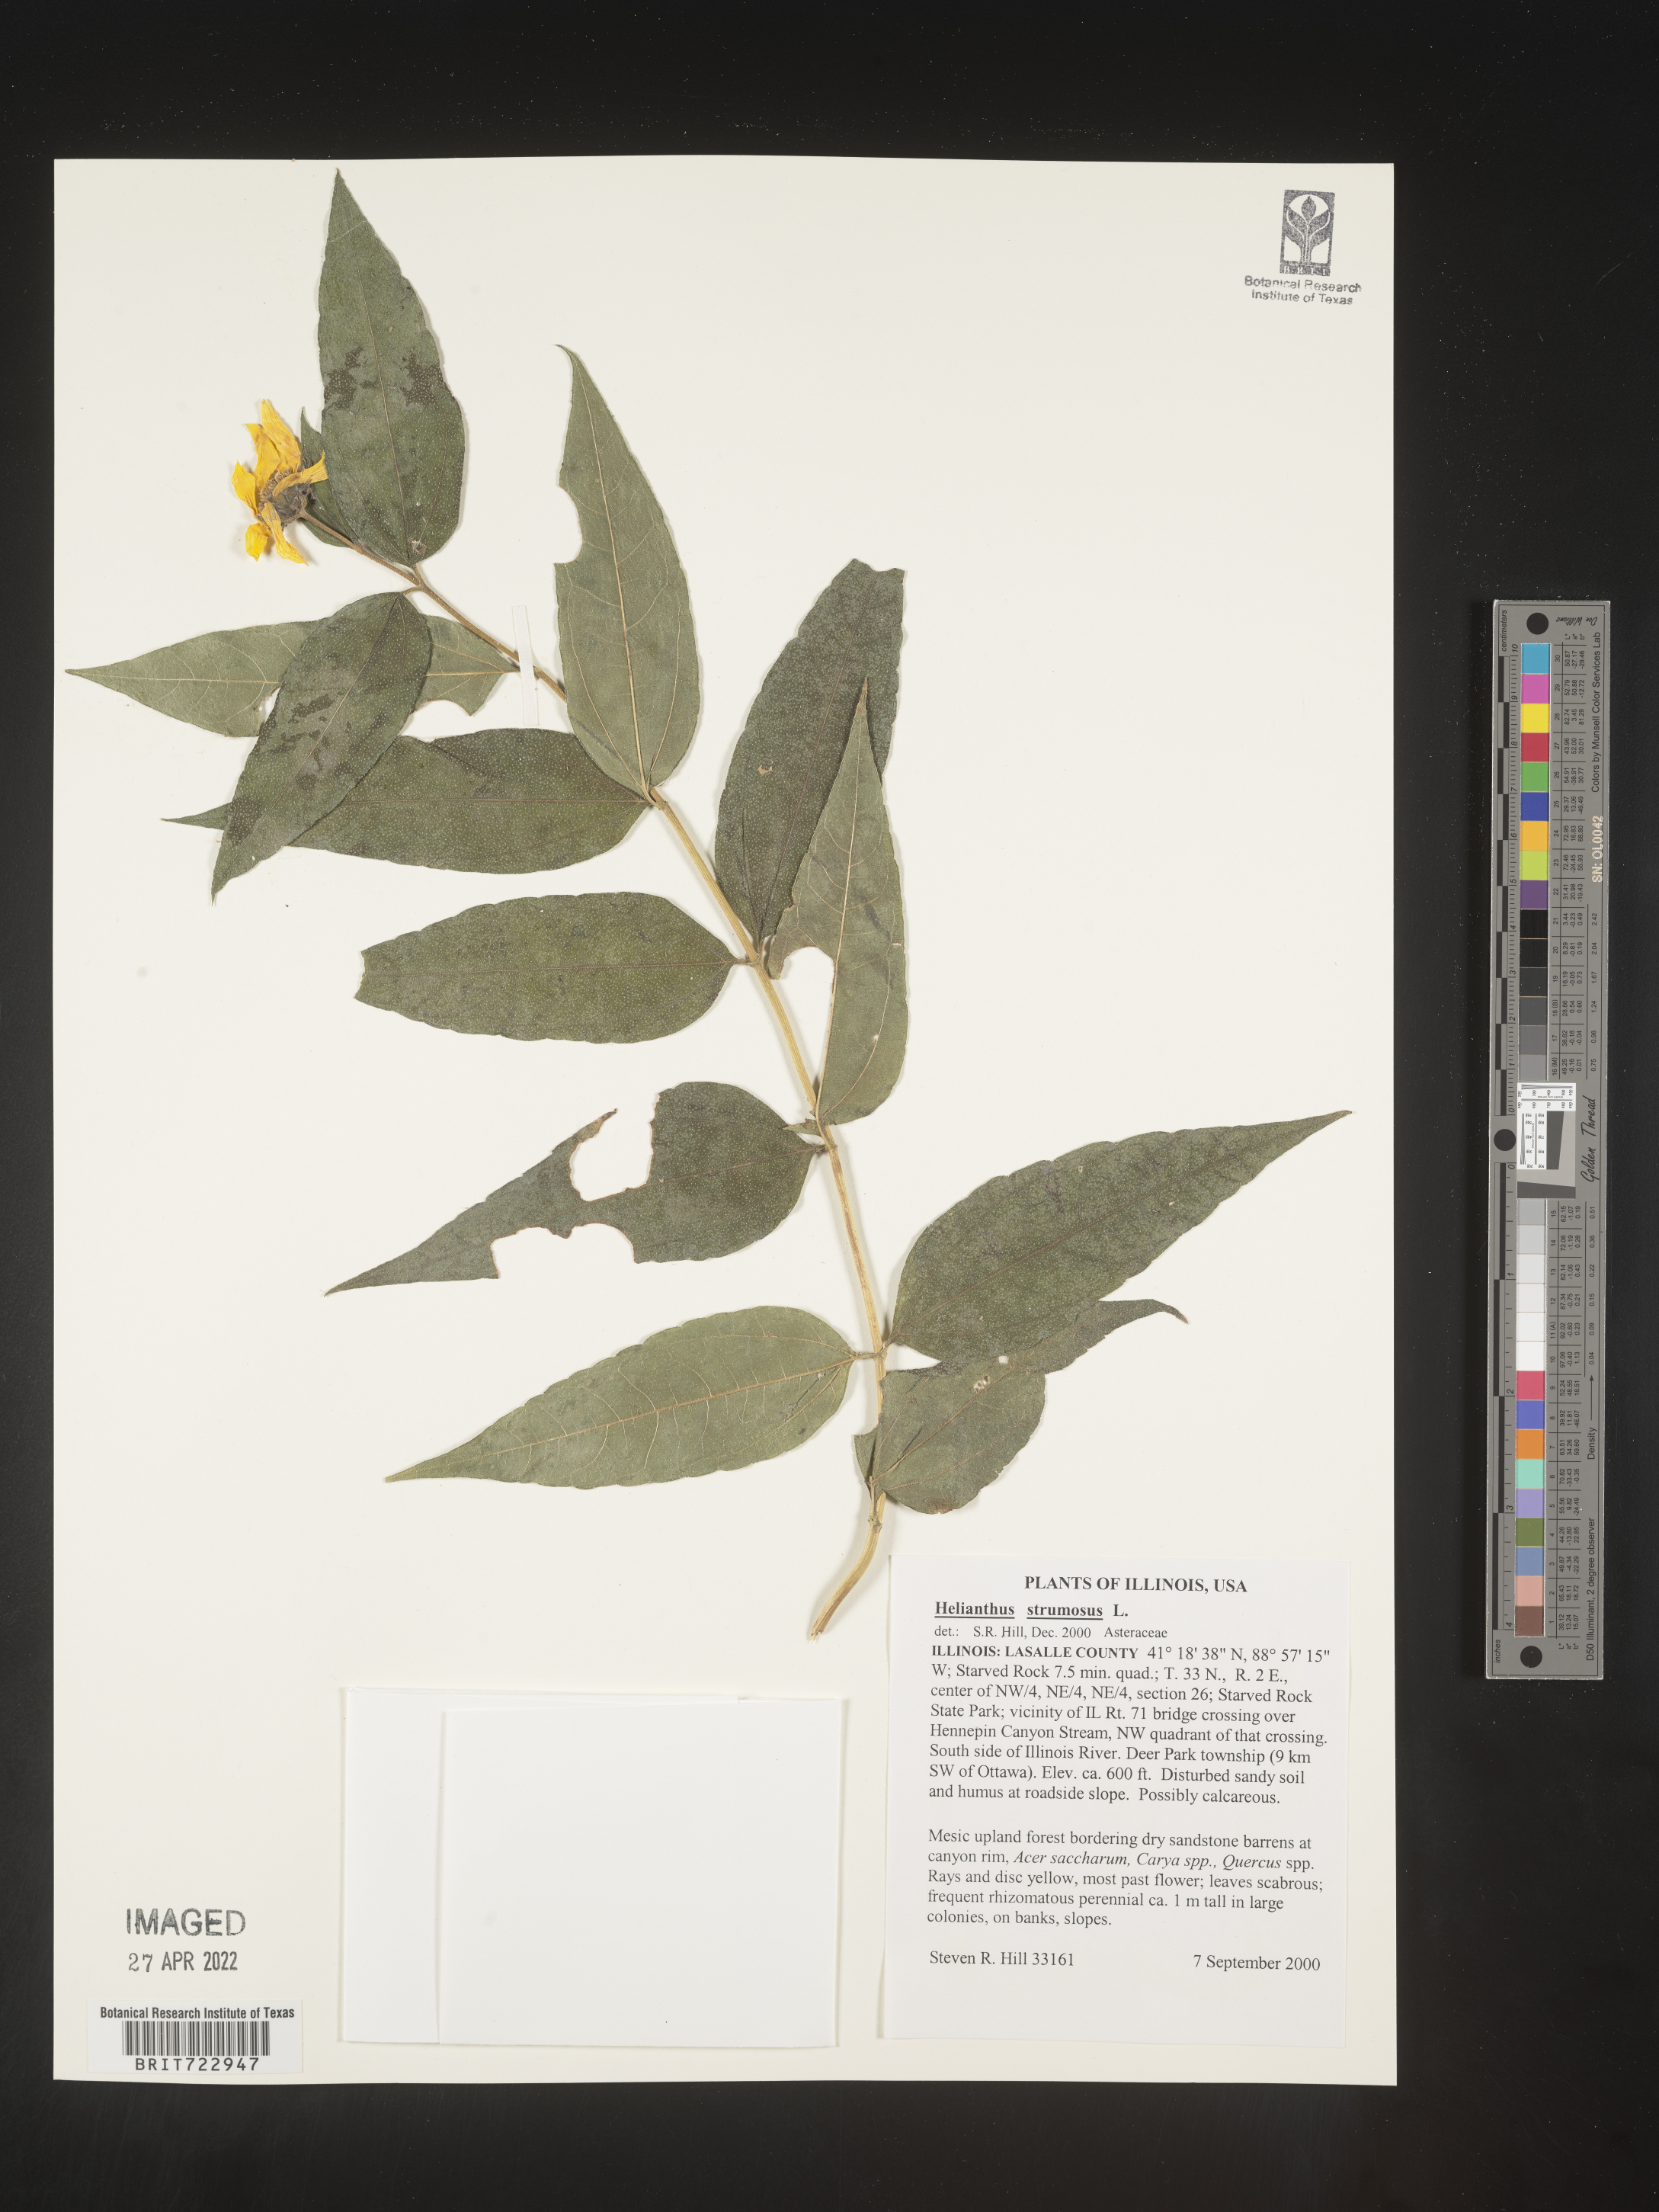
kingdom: Plantae
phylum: Tracheophyta
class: Magnoliopsida
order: Asterales
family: Asteraceae
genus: Helianthus
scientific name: Helianthus strumosus
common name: Pale-leaved sunflower
